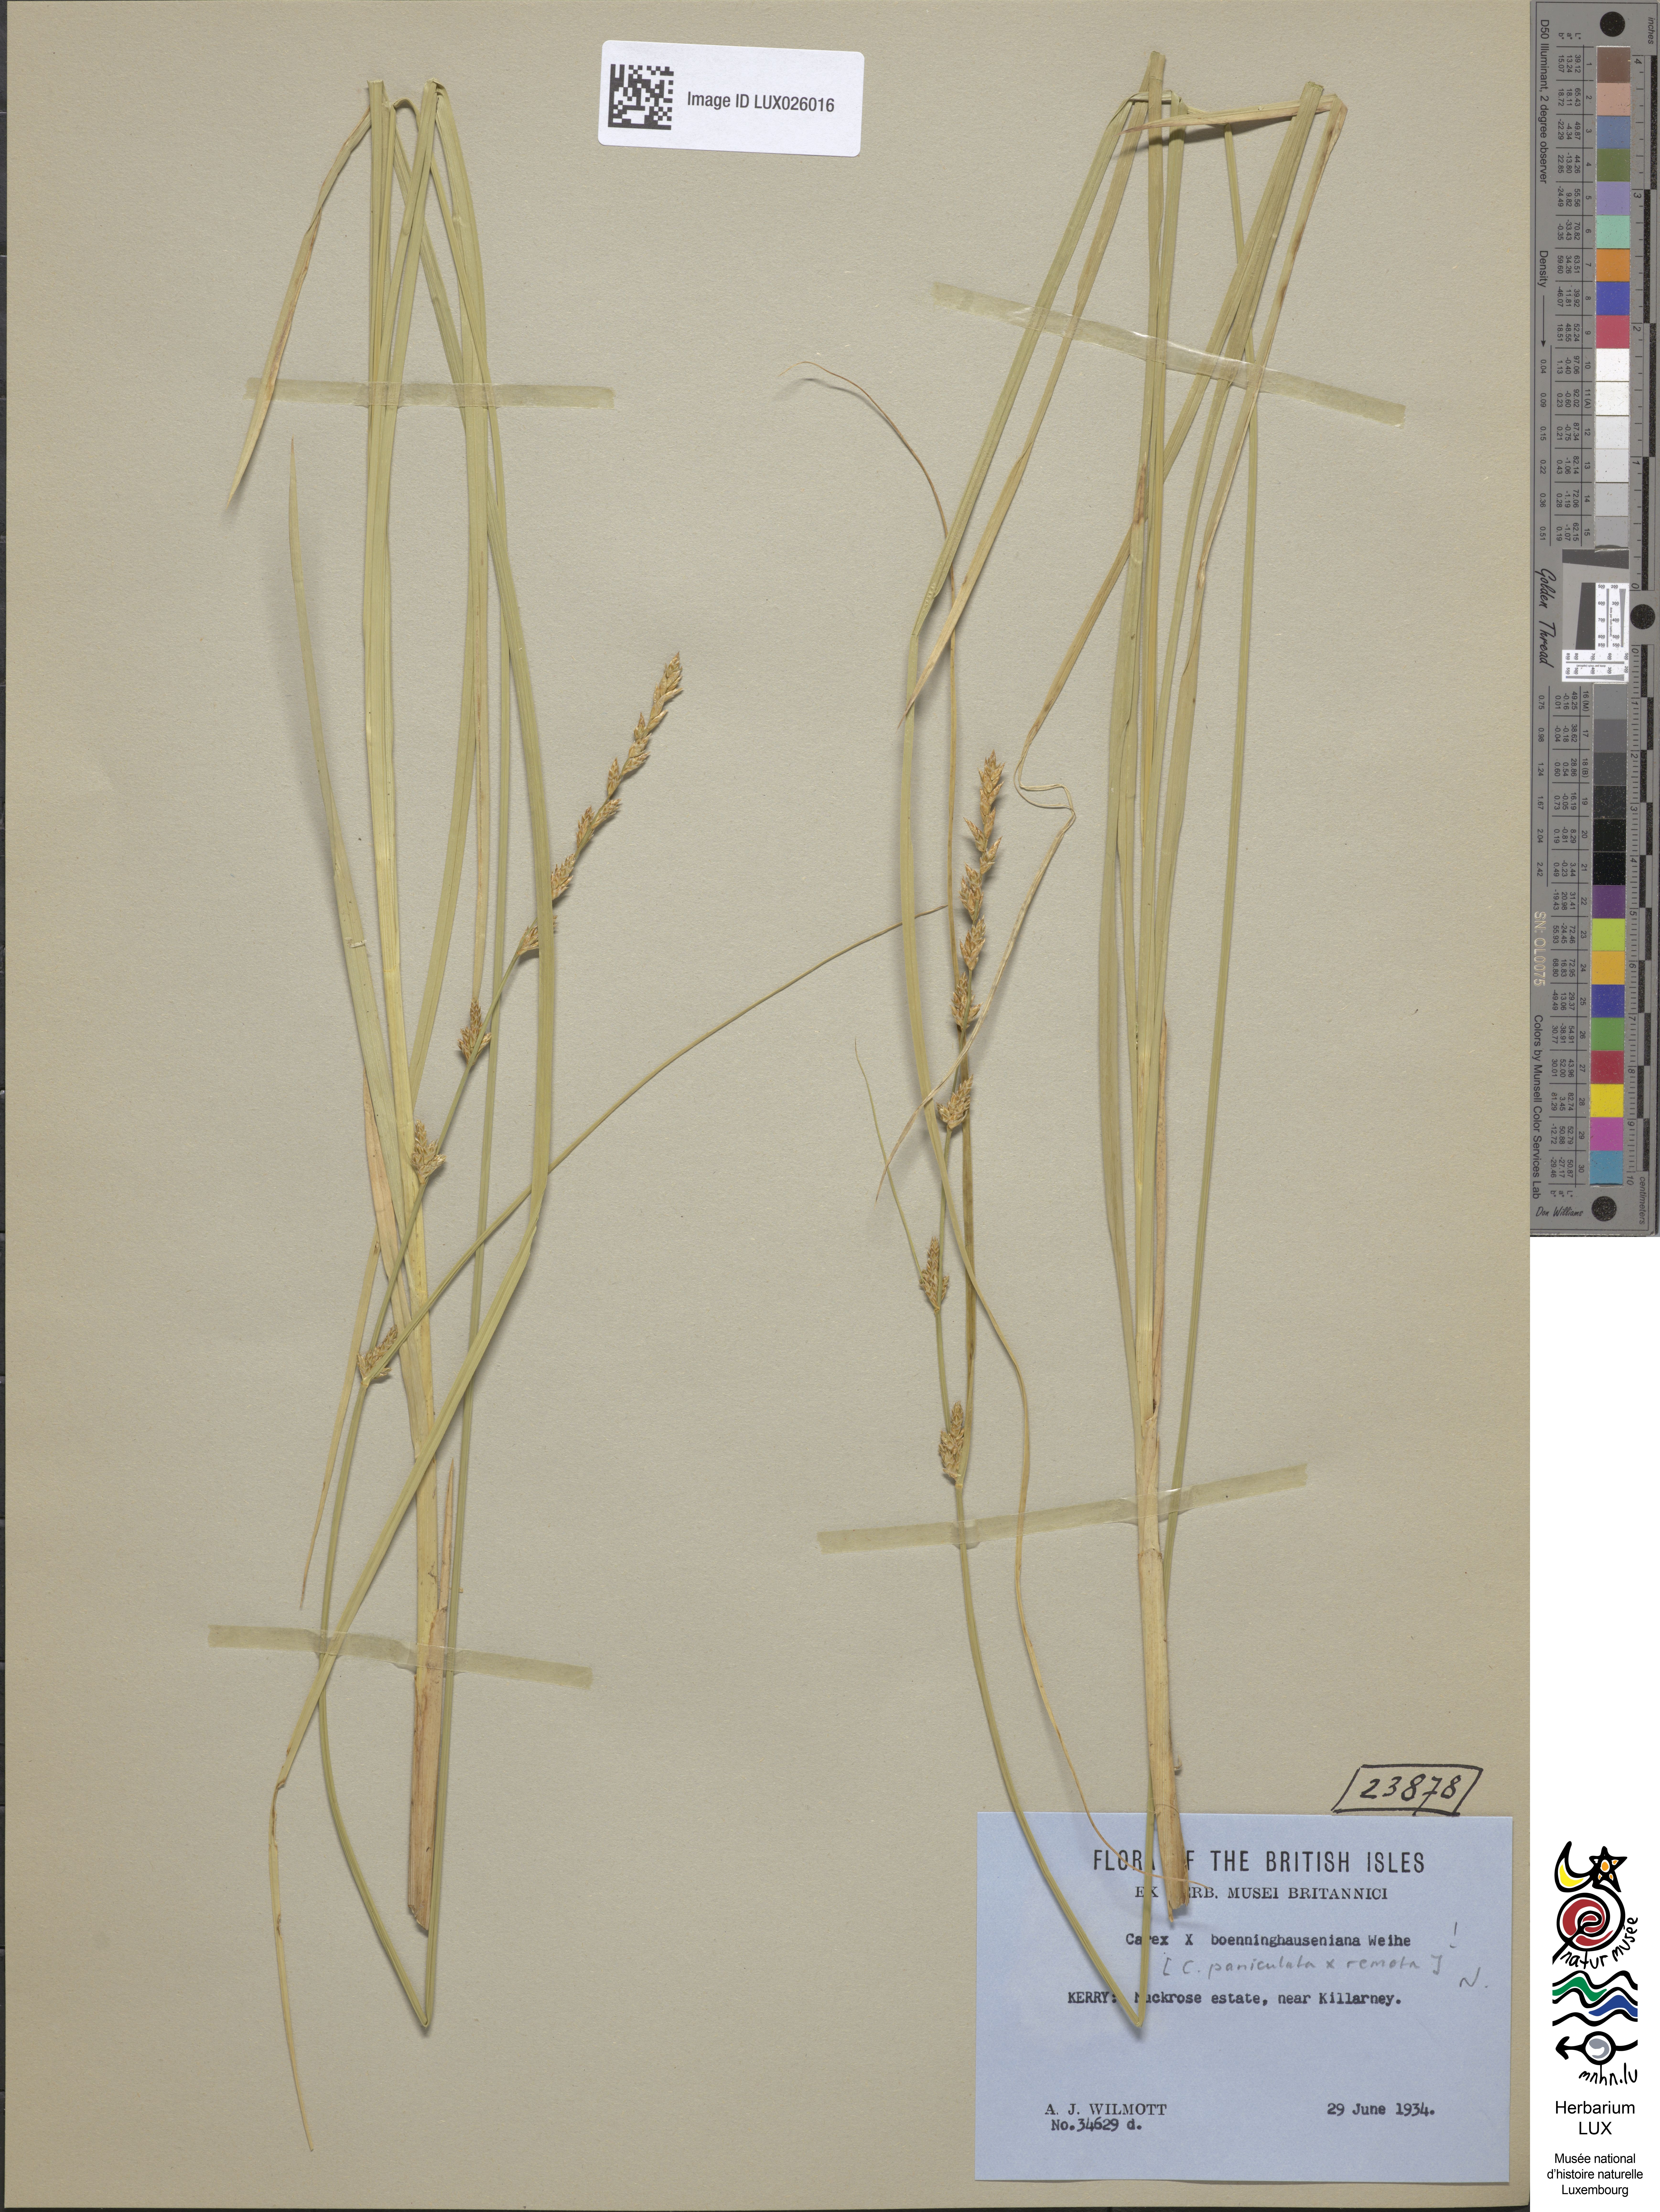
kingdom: Plantae
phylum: Tracheophyta
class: Liliopsida
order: Poales
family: Cyperaceae
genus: Carex
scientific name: Carex boenninghausiana
